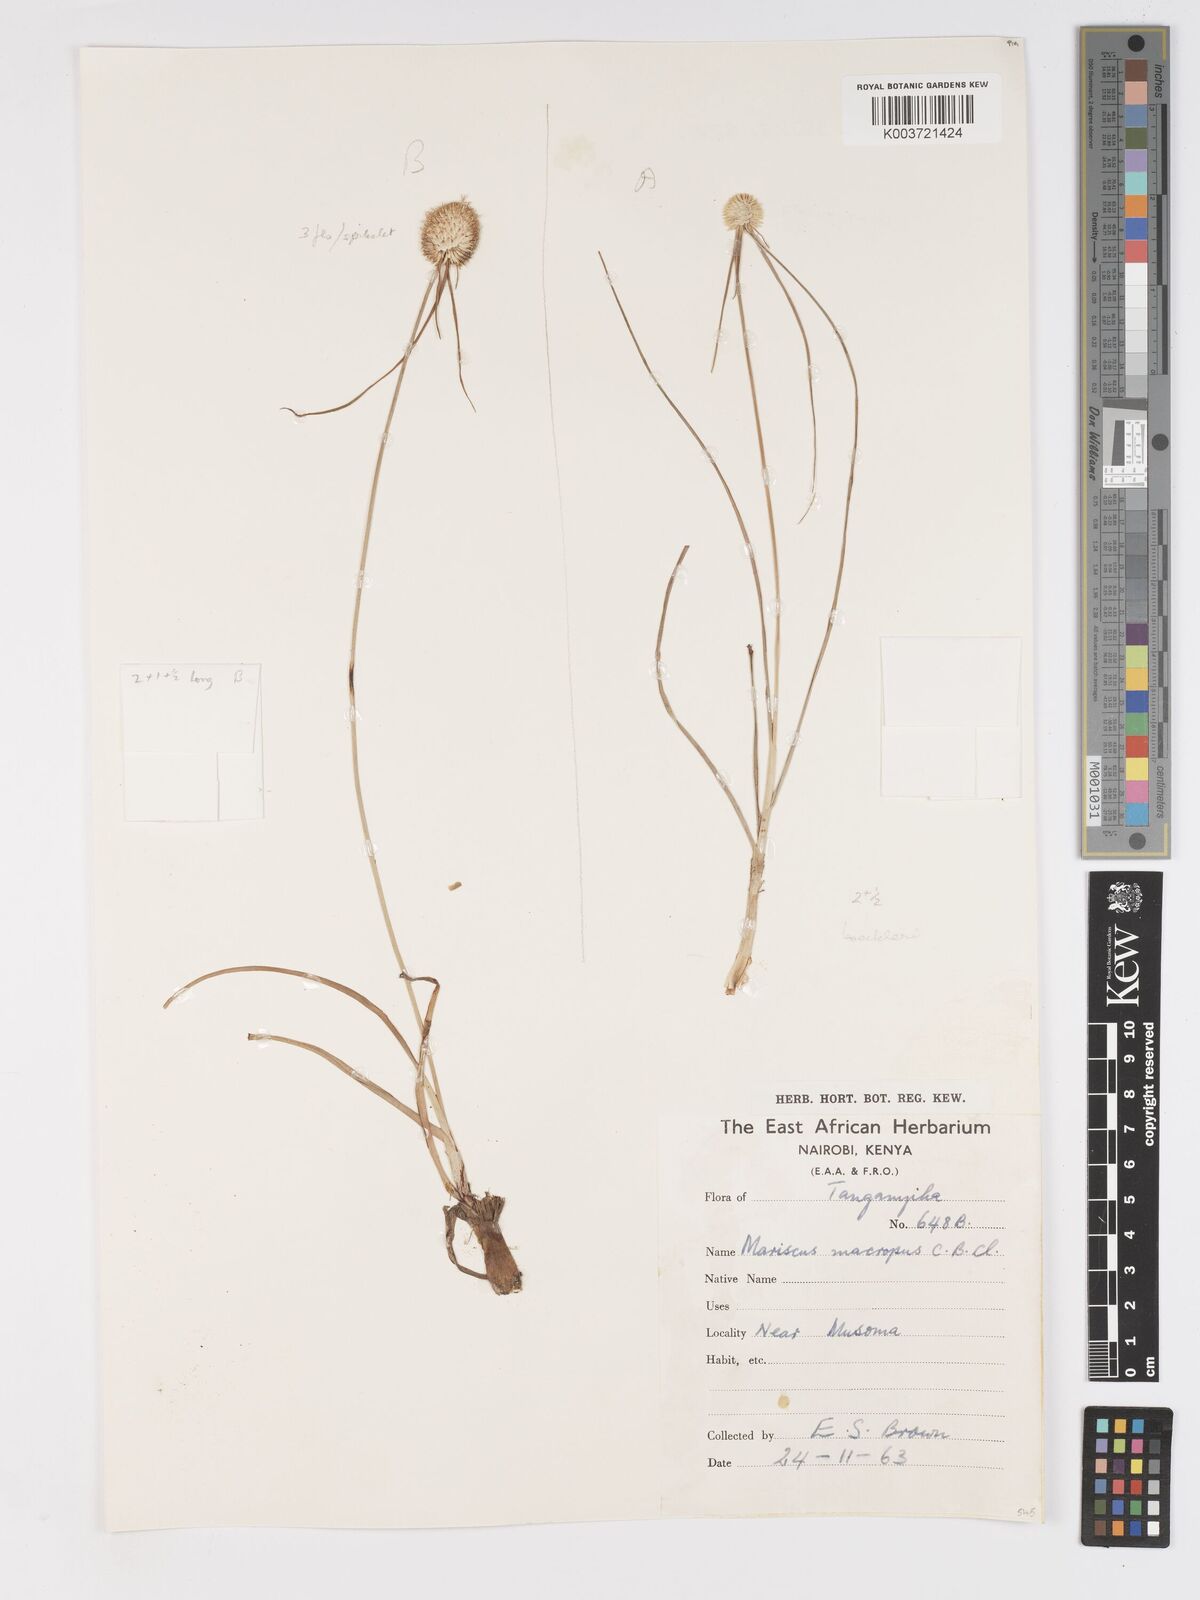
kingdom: Plantae
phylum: Tracheophyta
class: Liliopsida
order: Poales
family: Cyperaceae
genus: Cyperus
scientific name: Cyperus mollipes
